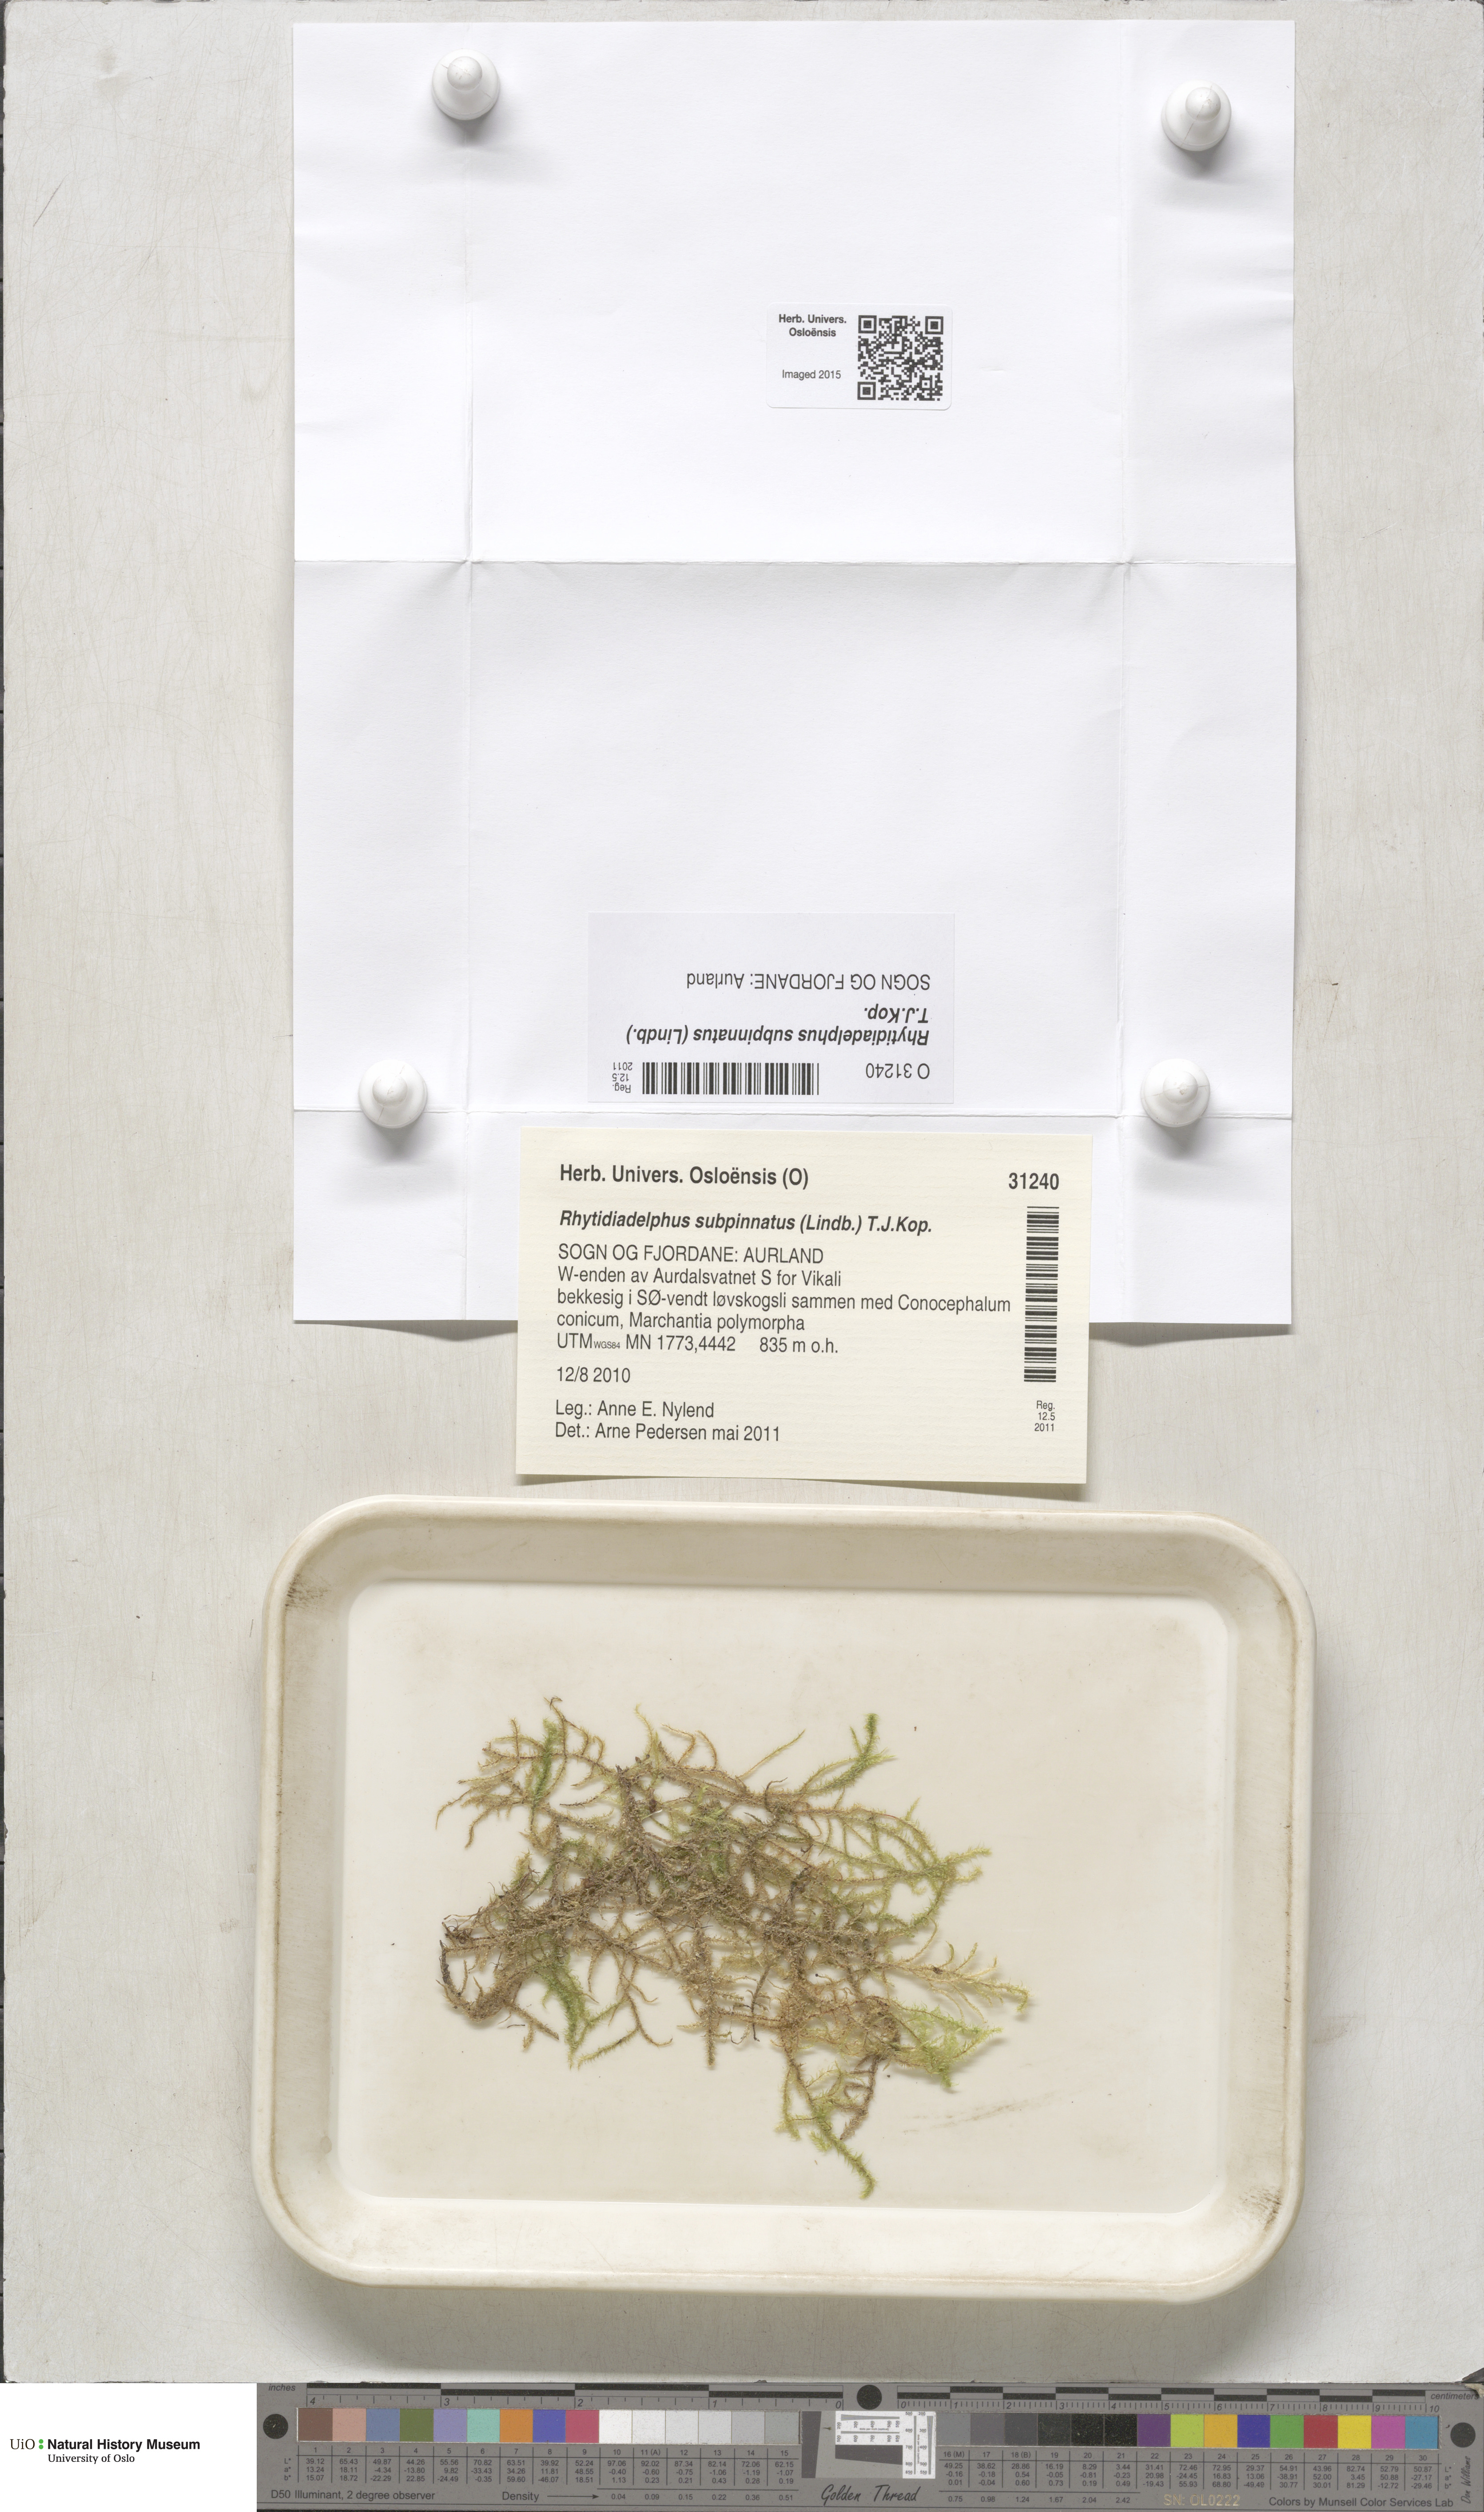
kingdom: Plantae
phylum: Bryophyta
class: Bryopsida
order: Hypnales
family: Hylocomiaceae
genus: Rhytidiadelphus
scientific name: Rhytidiadelphus subpinnatus
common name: Subpinnate gooseneck moss
